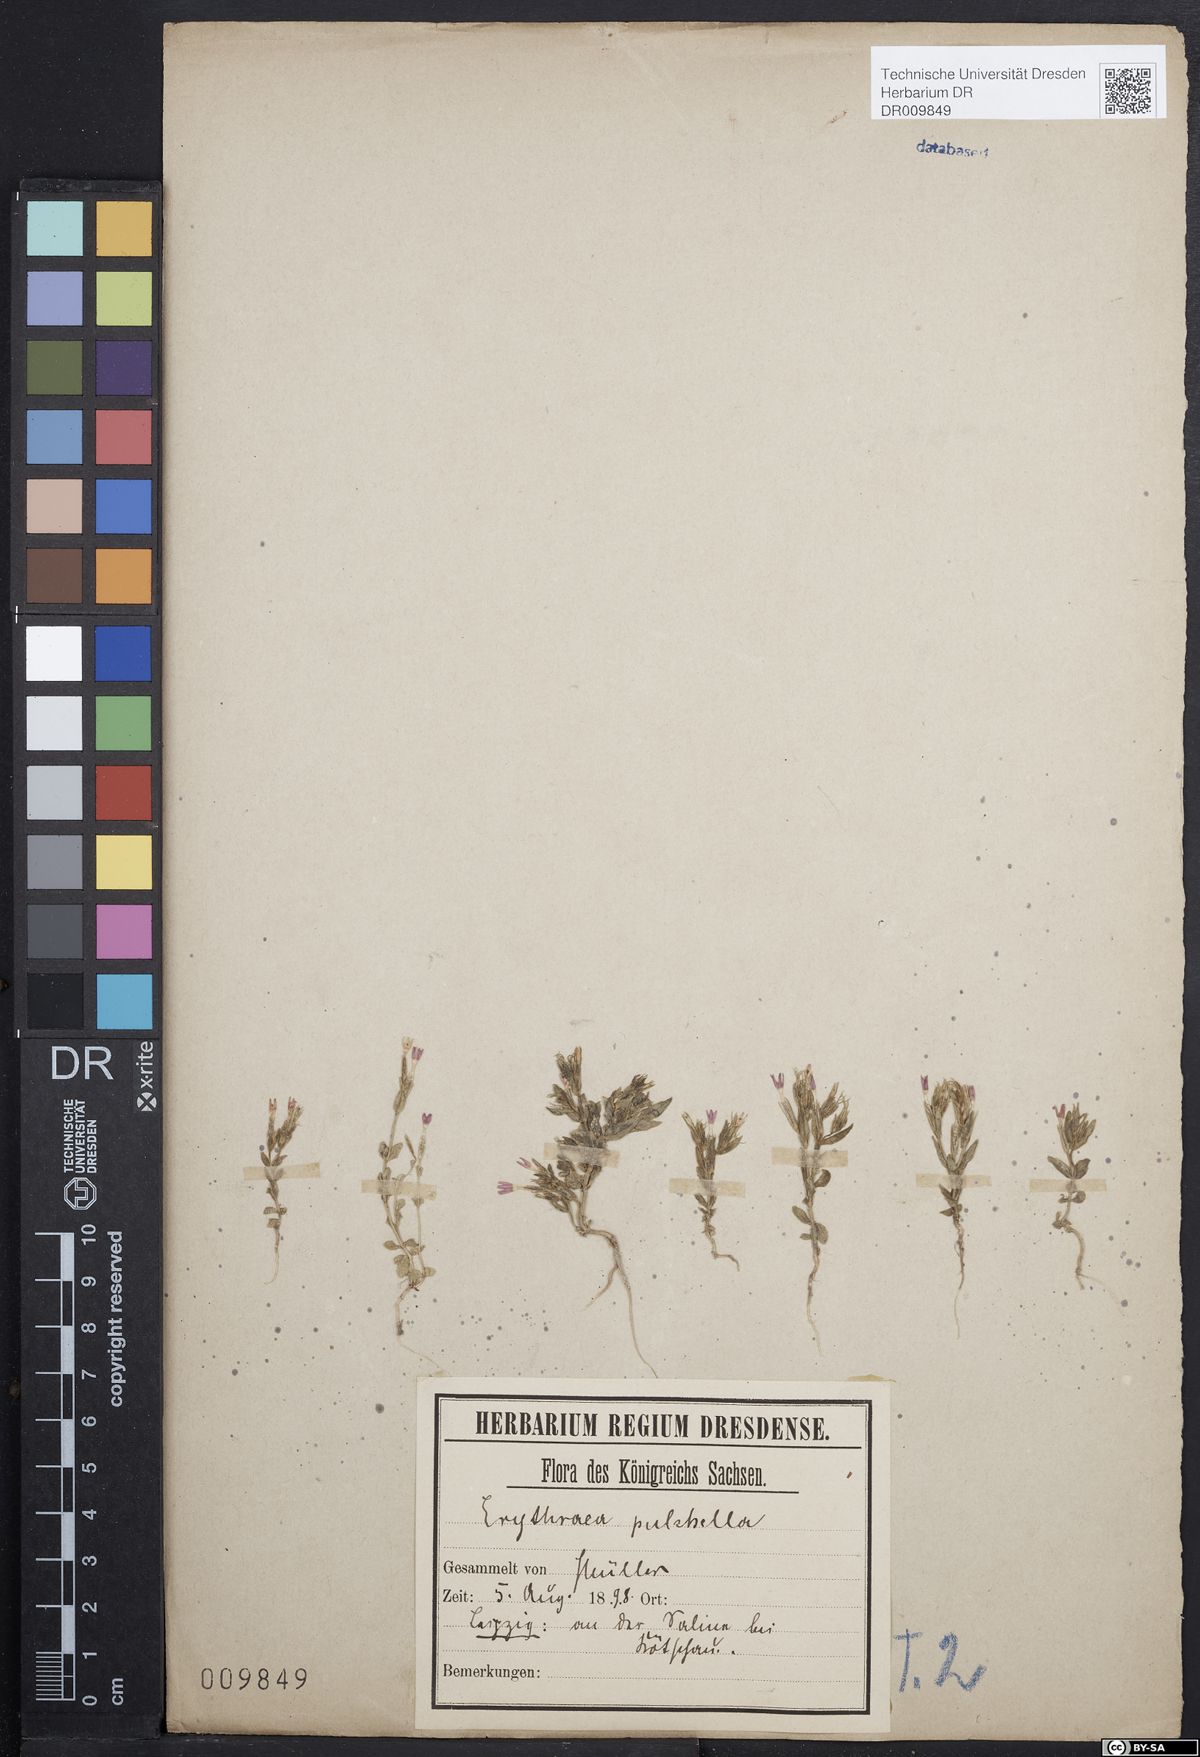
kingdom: Plantae
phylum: Tracheophyta
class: Magnoliopsida
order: Gentianales
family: Gentianaceae
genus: Centaurium
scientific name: Centaurium pulchellum
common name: Lesser centaury
